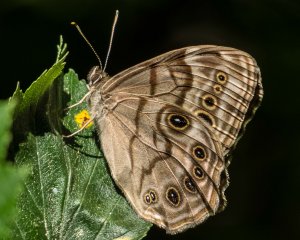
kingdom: Animalia
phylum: Arthropoda
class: Insecta
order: Lepidoptera
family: Nymphalidae
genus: Lethe
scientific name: Lethe anthedon
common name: Northern Pearly-Eye
